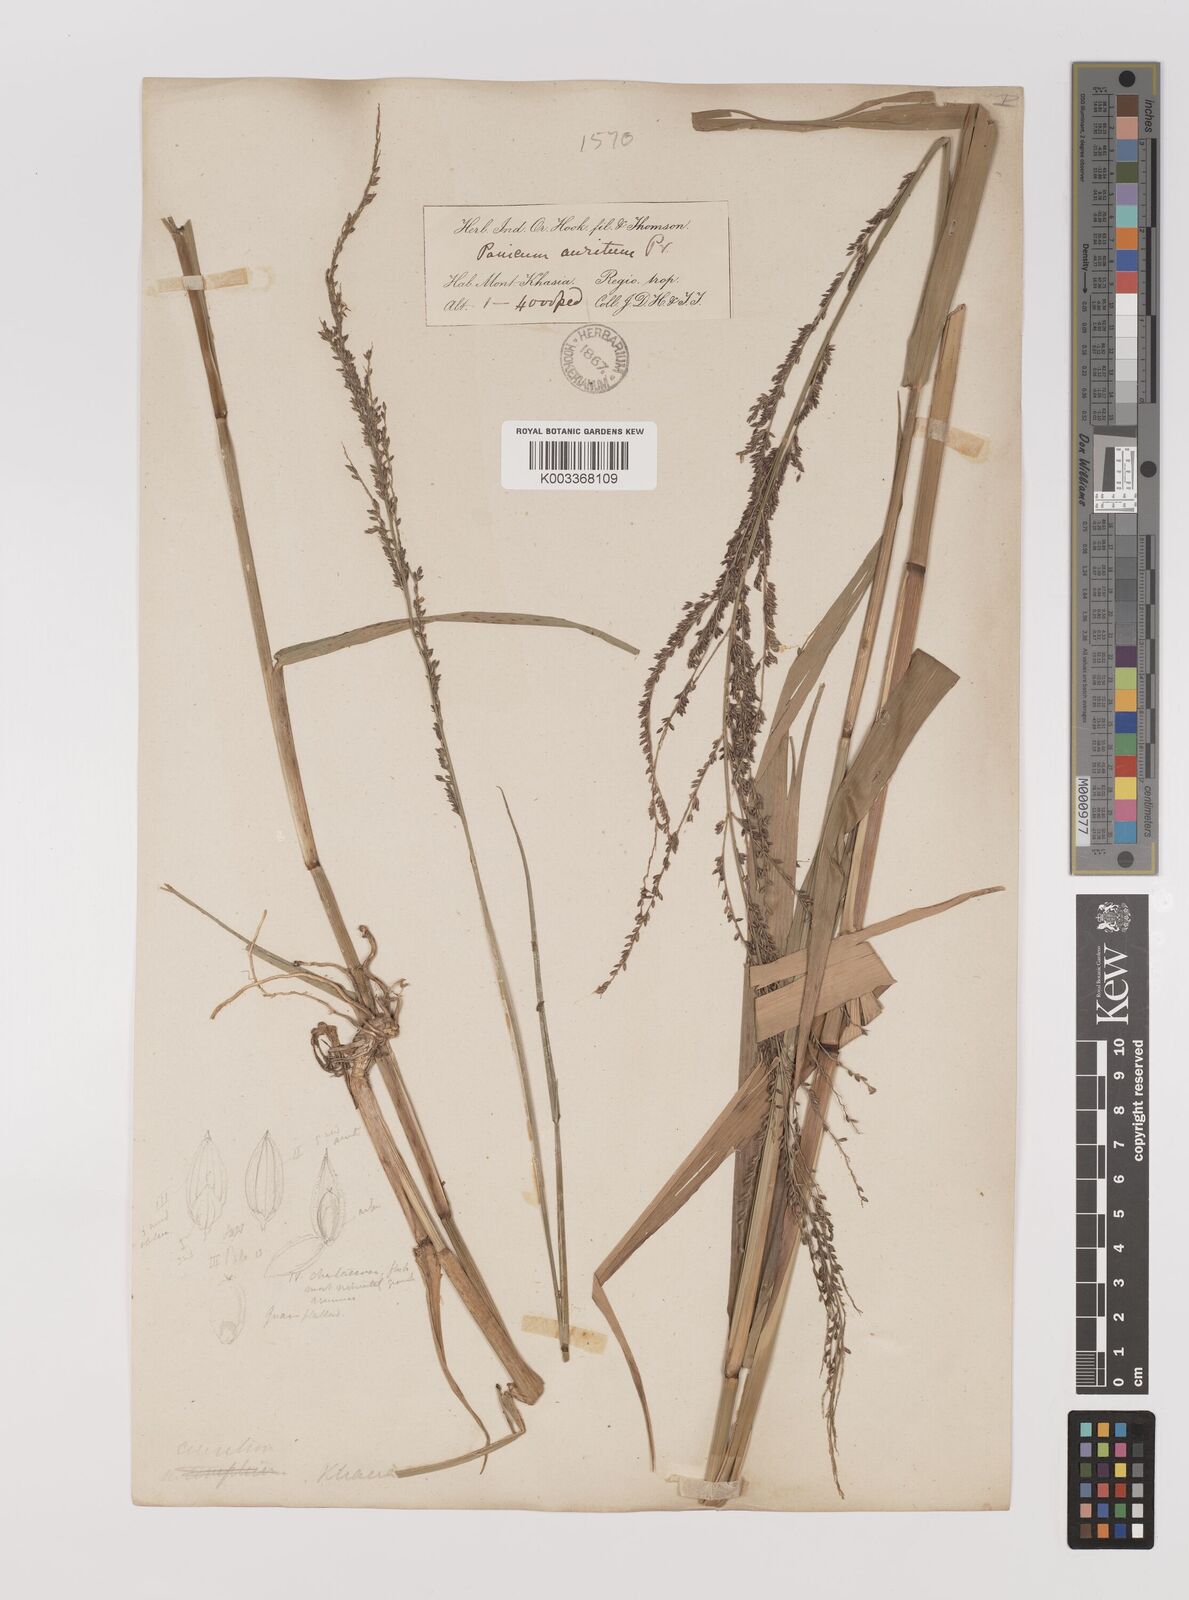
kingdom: Plantae
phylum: Tracheophyta
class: Liliopsida
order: Poales
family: Poaceae
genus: Hymenachne
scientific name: Hymenachne aurita
